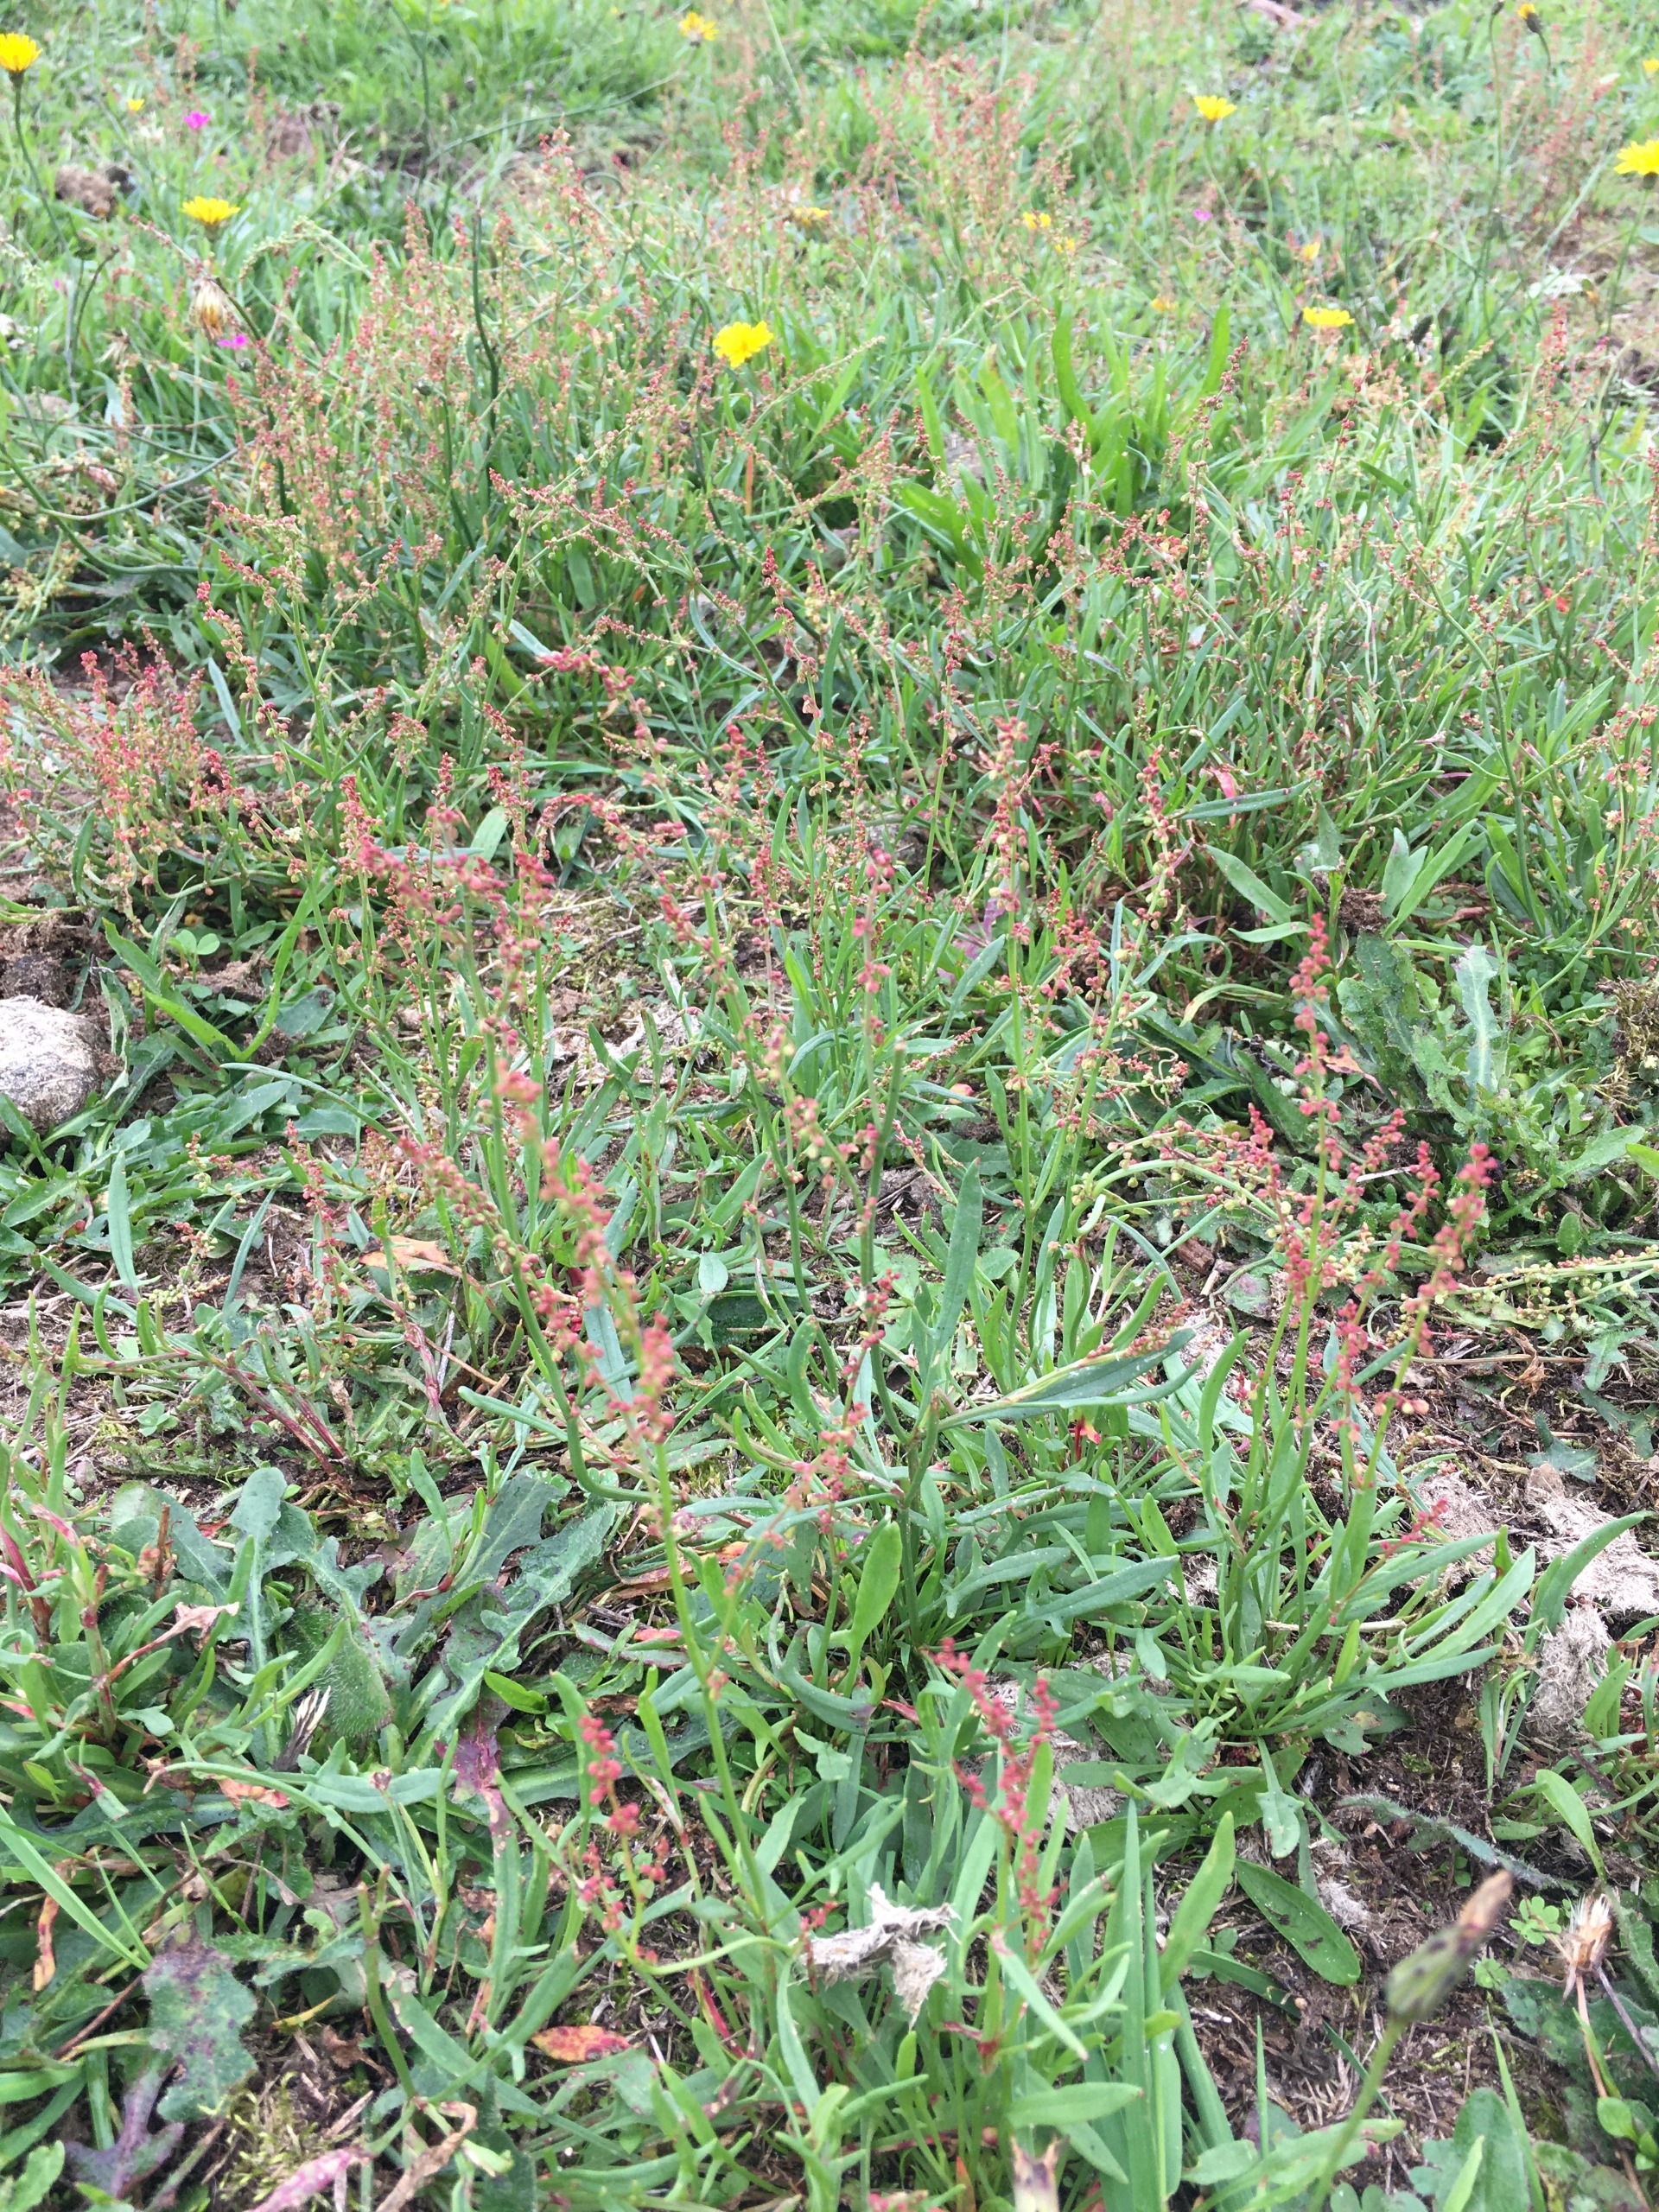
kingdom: Plantae
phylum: Tracheophyta
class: Magnoliopsida
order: Caryophyllales
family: Polygonaceae
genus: Rumex
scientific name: Rumex acetosella
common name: Rødknæ
